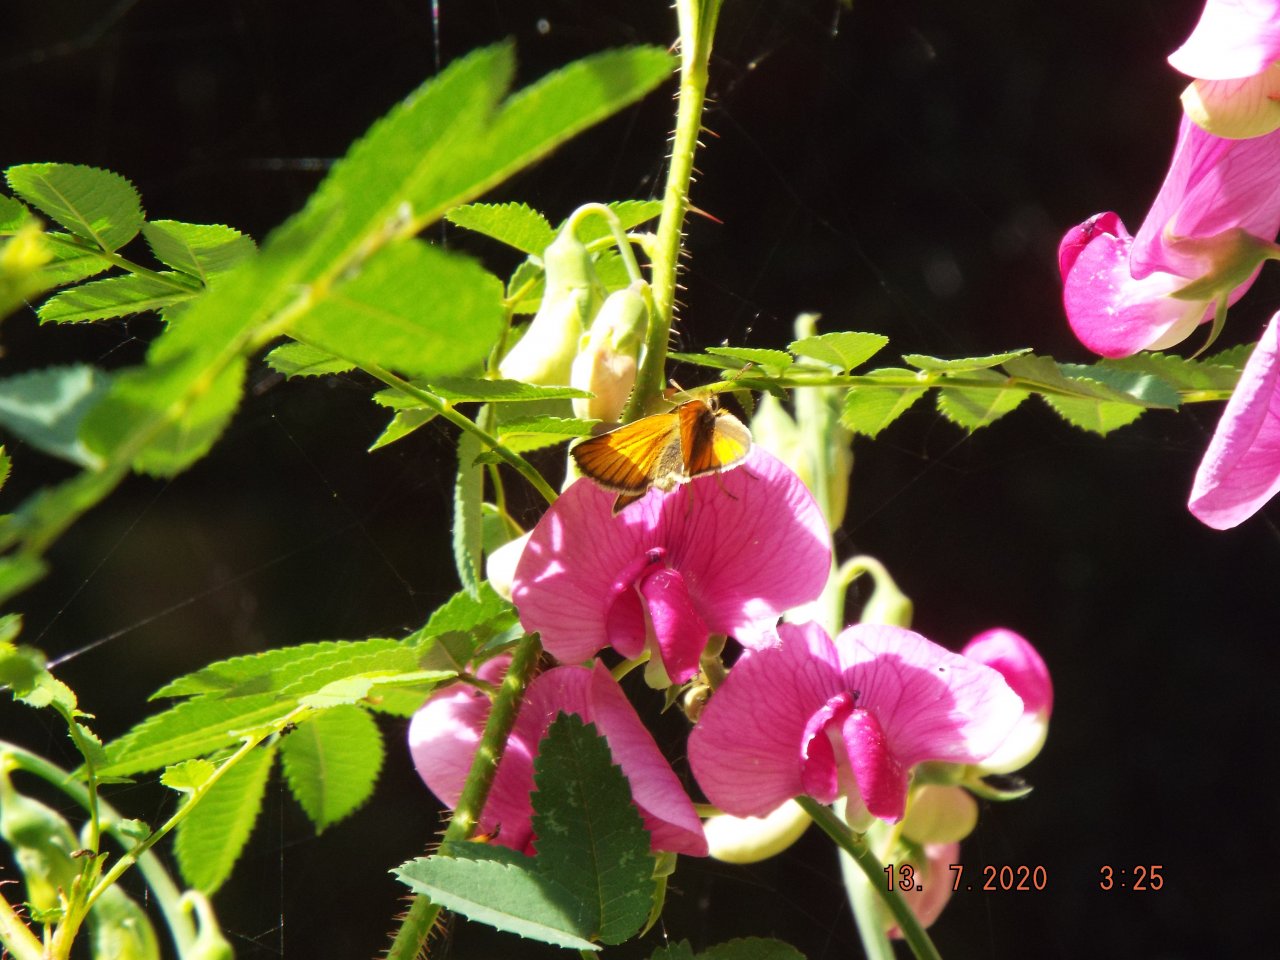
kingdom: Animalia
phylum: Arthropoda
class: Insecta
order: Lepidoptera
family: Hesperiidae
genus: Thymelicus
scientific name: Thymelicus lineola
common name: European Skipper
